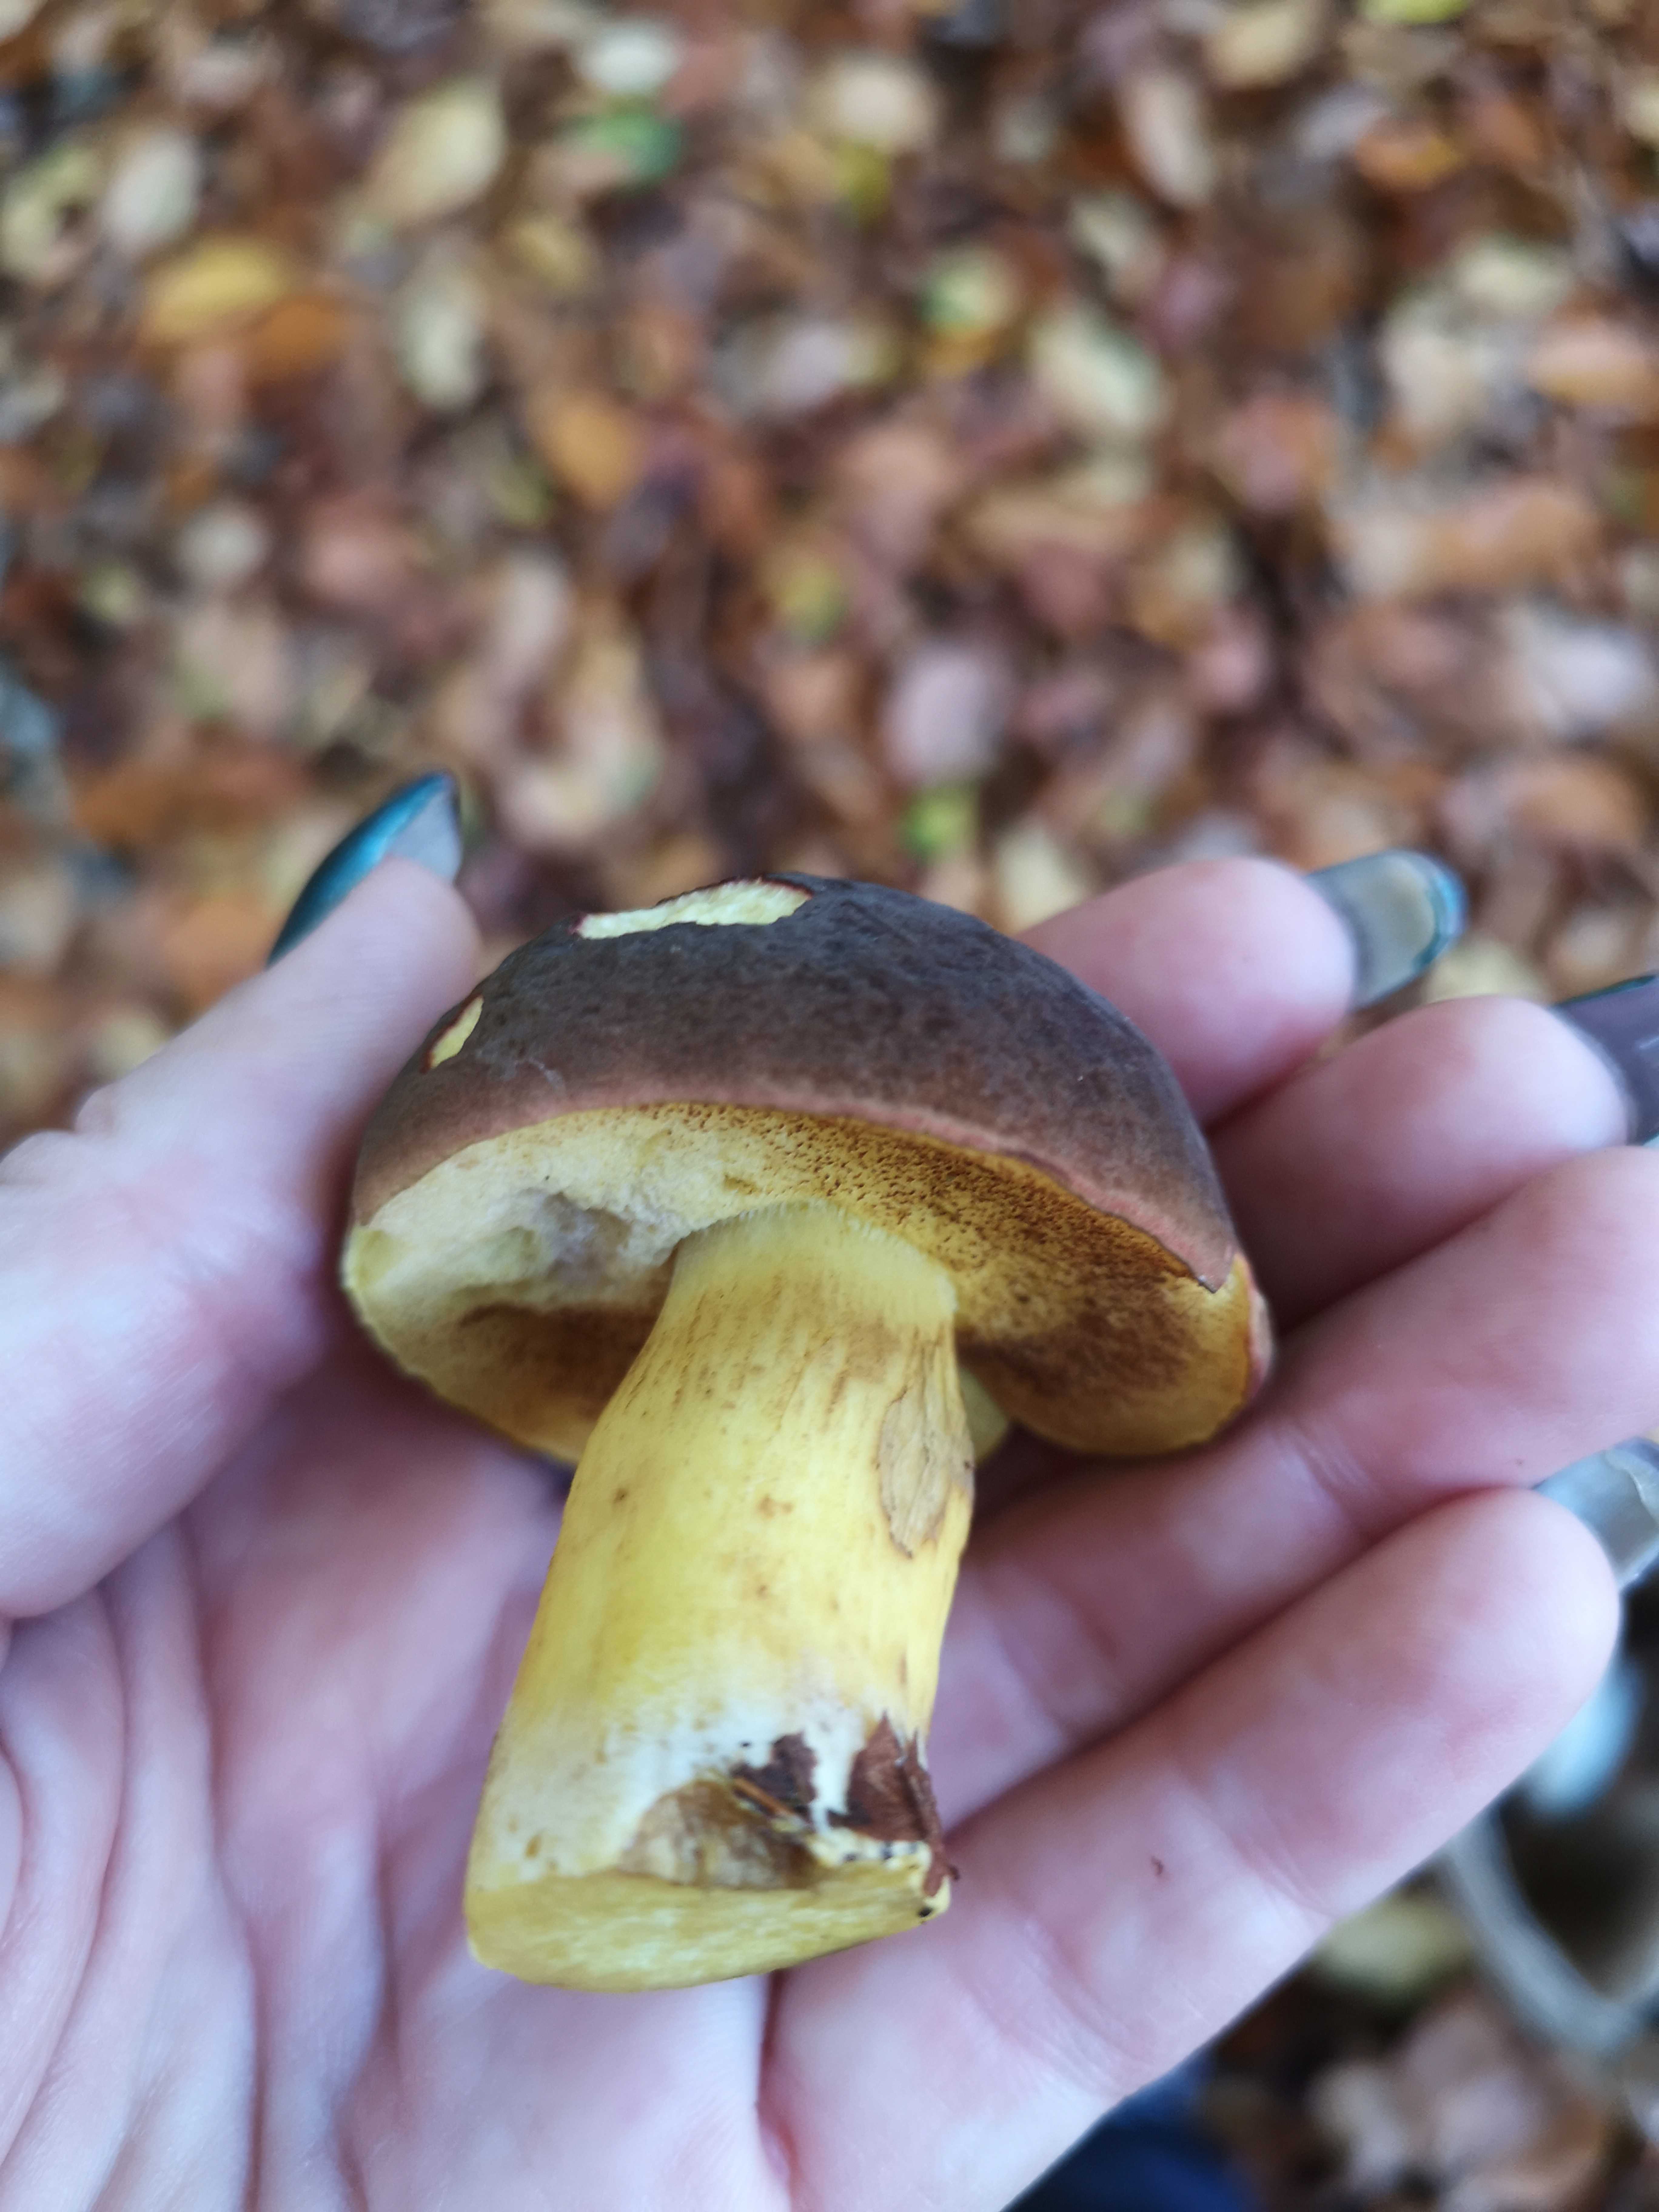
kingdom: Fungi
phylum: Basidiomycota
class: Agaricomycetes
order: Boletales
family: Boletaceae
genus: Xerocomellus
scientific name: Xerocomellus pruinatus
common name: dugget rørhat
